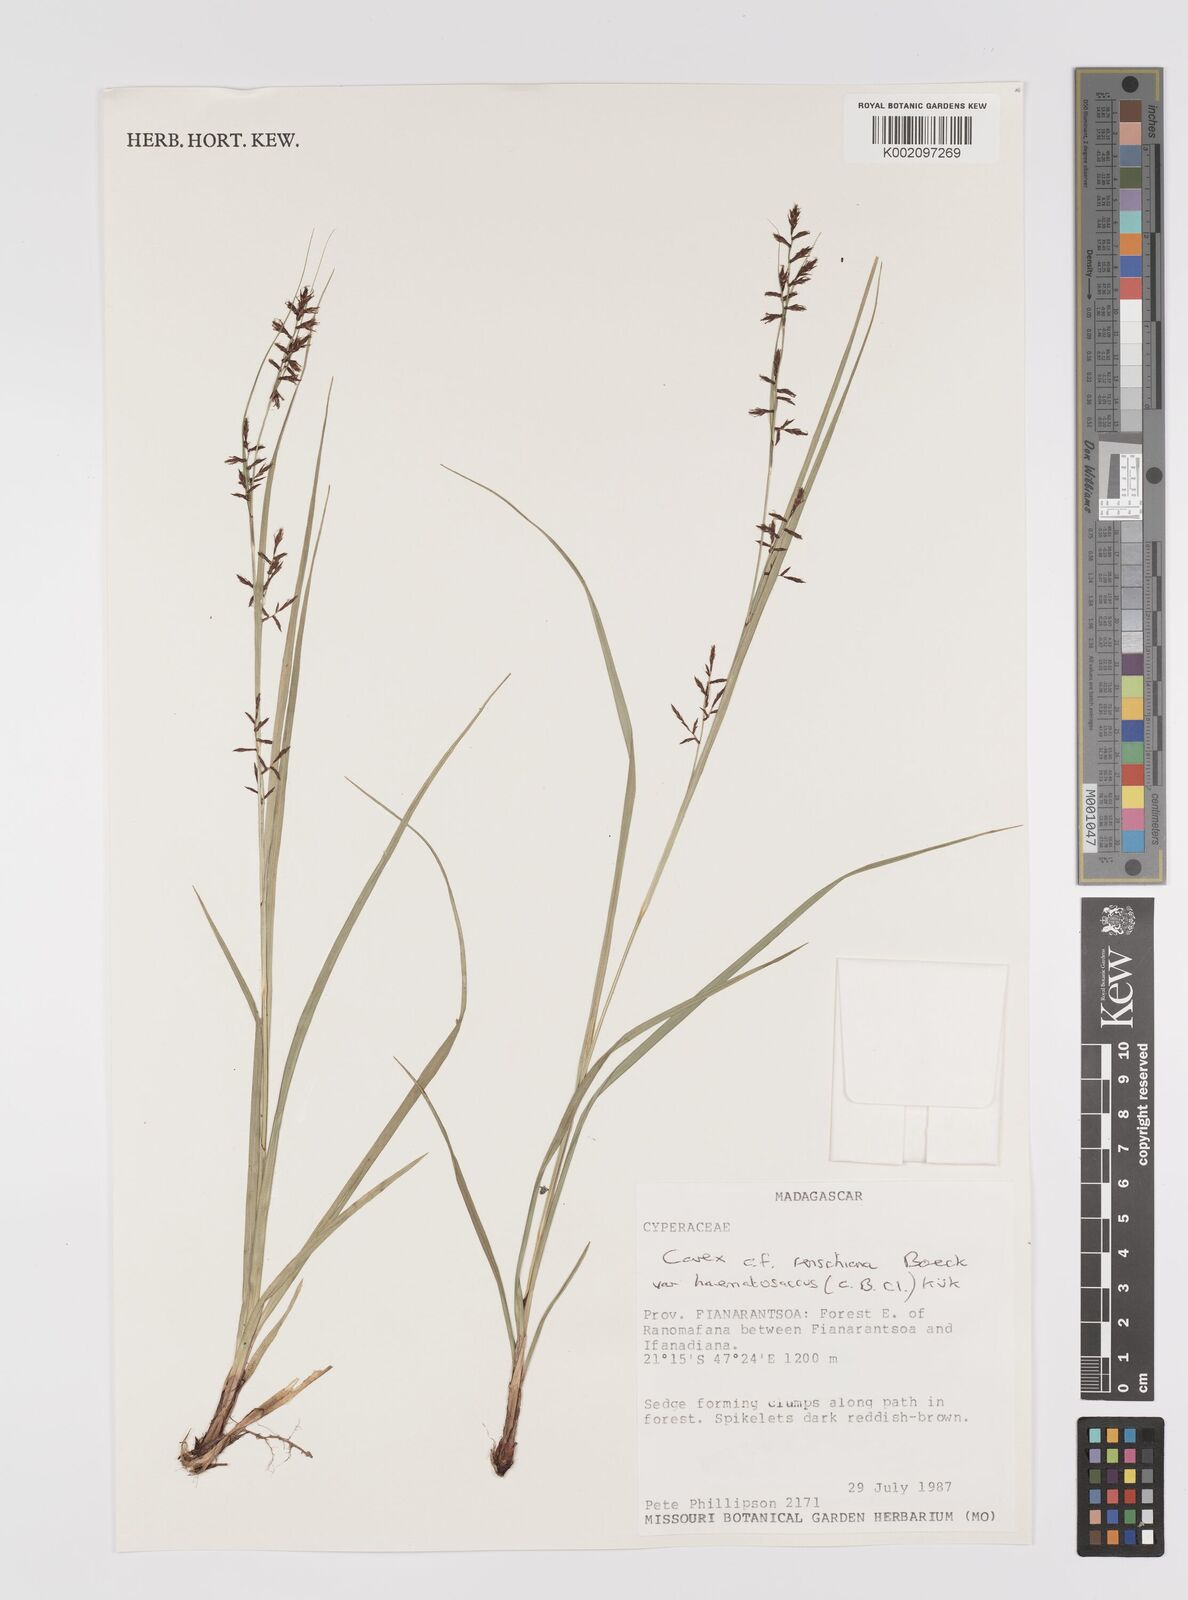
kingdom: Plantae
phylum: Tracheophyta
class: Liliopsida
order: Poales
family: Cyperaceae
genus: Carex
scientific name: Carex renschiana
